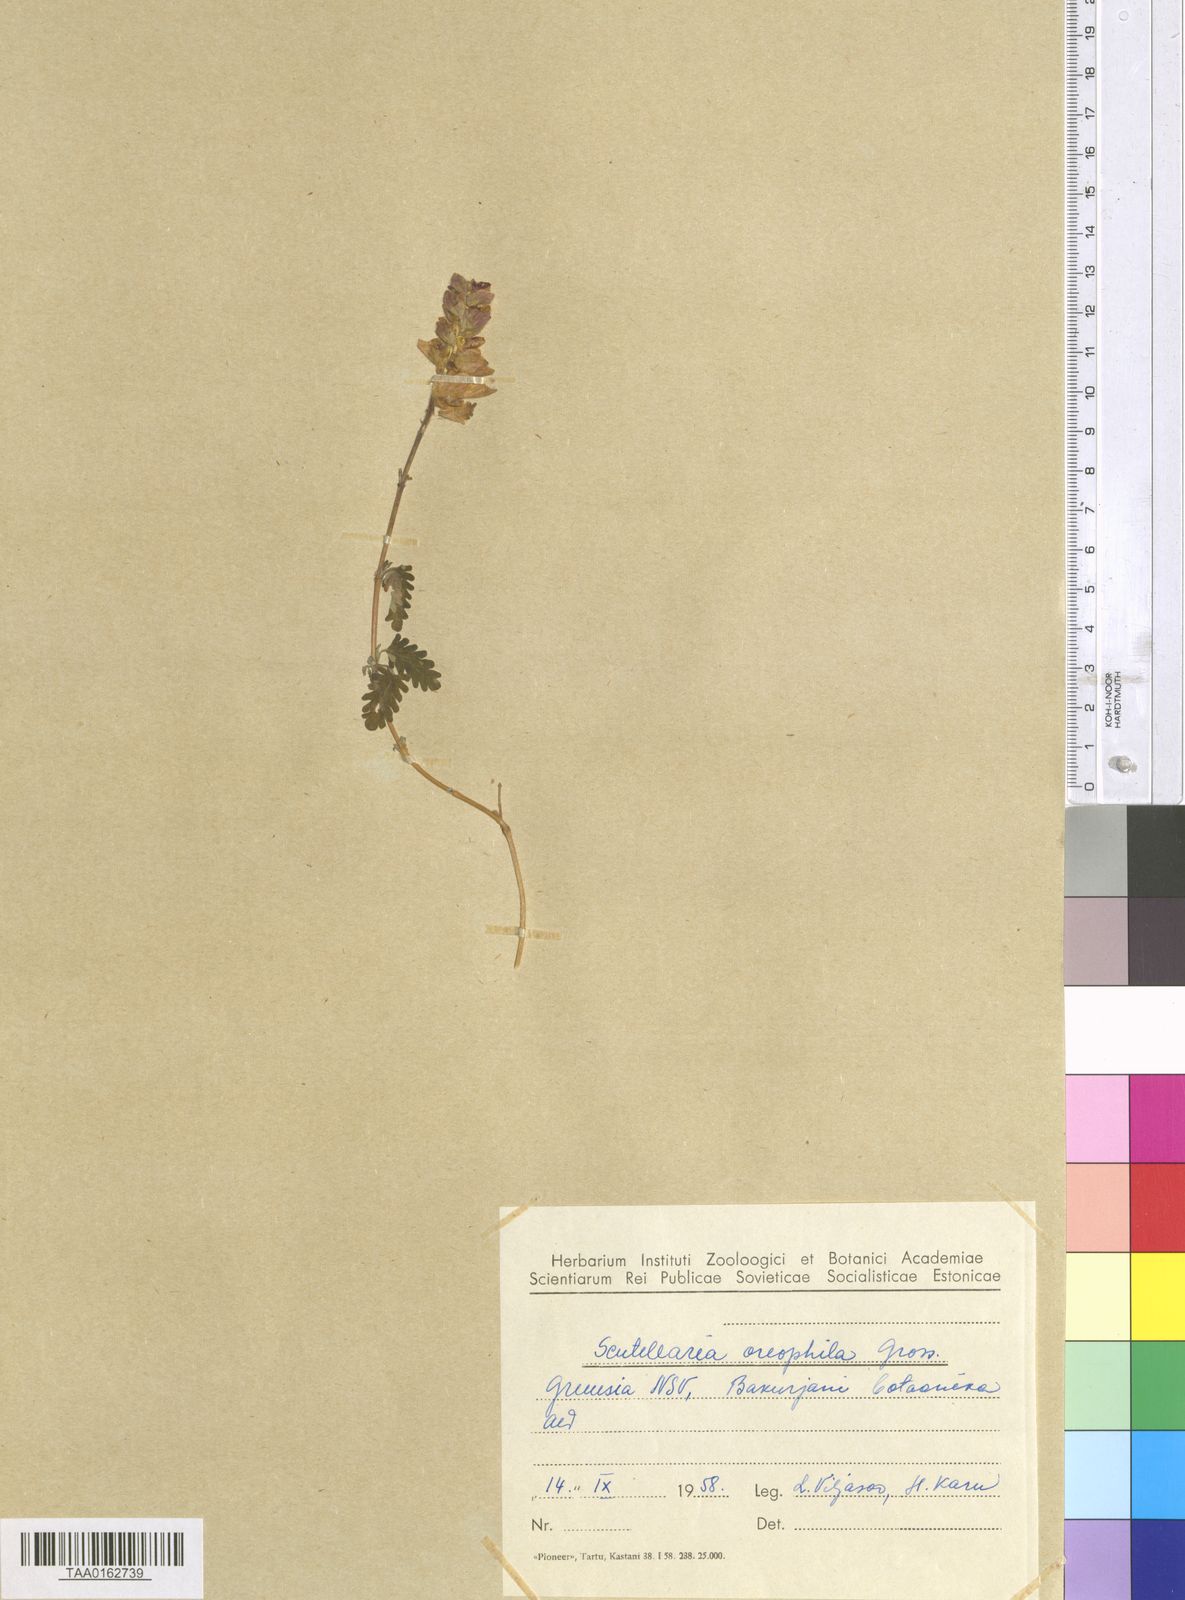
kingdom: Plantae
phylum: Tracheophyta
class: Magnoliopsida
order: Lamiales
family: Lamiaceae
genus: Scutellaria
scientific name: Scutellaria oreophila
